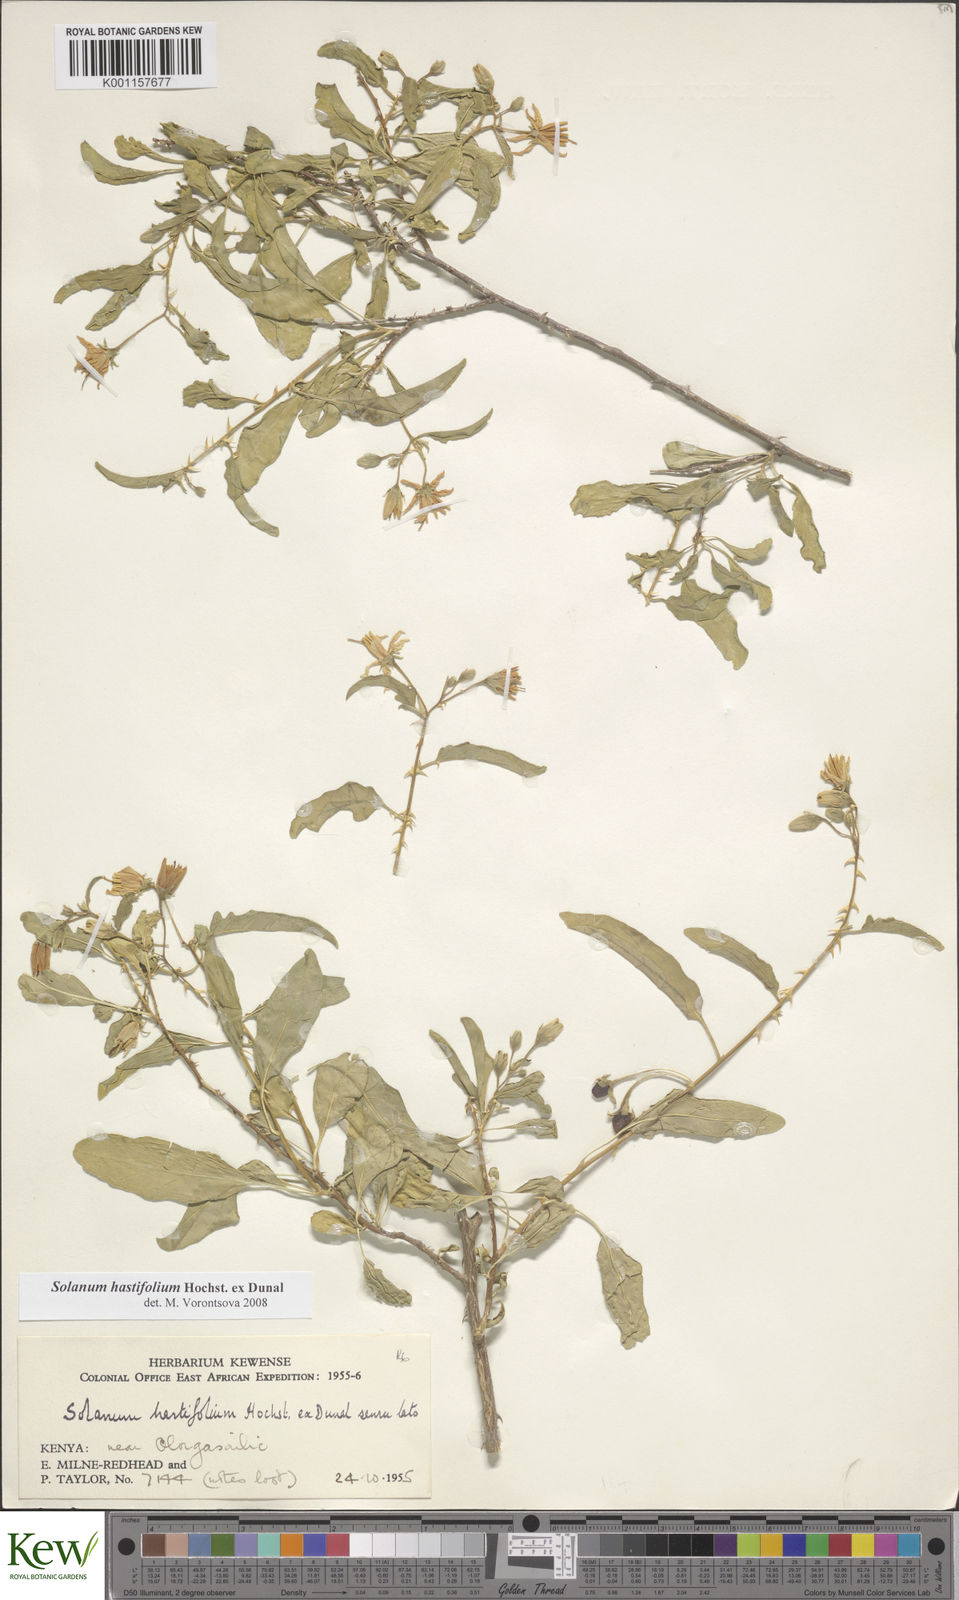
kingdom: Plantae
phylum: Tracheophyta
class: Magnoliopsida
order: Solanales
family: Solanaceae
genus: Solanum
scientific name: Solanum hastifolium
